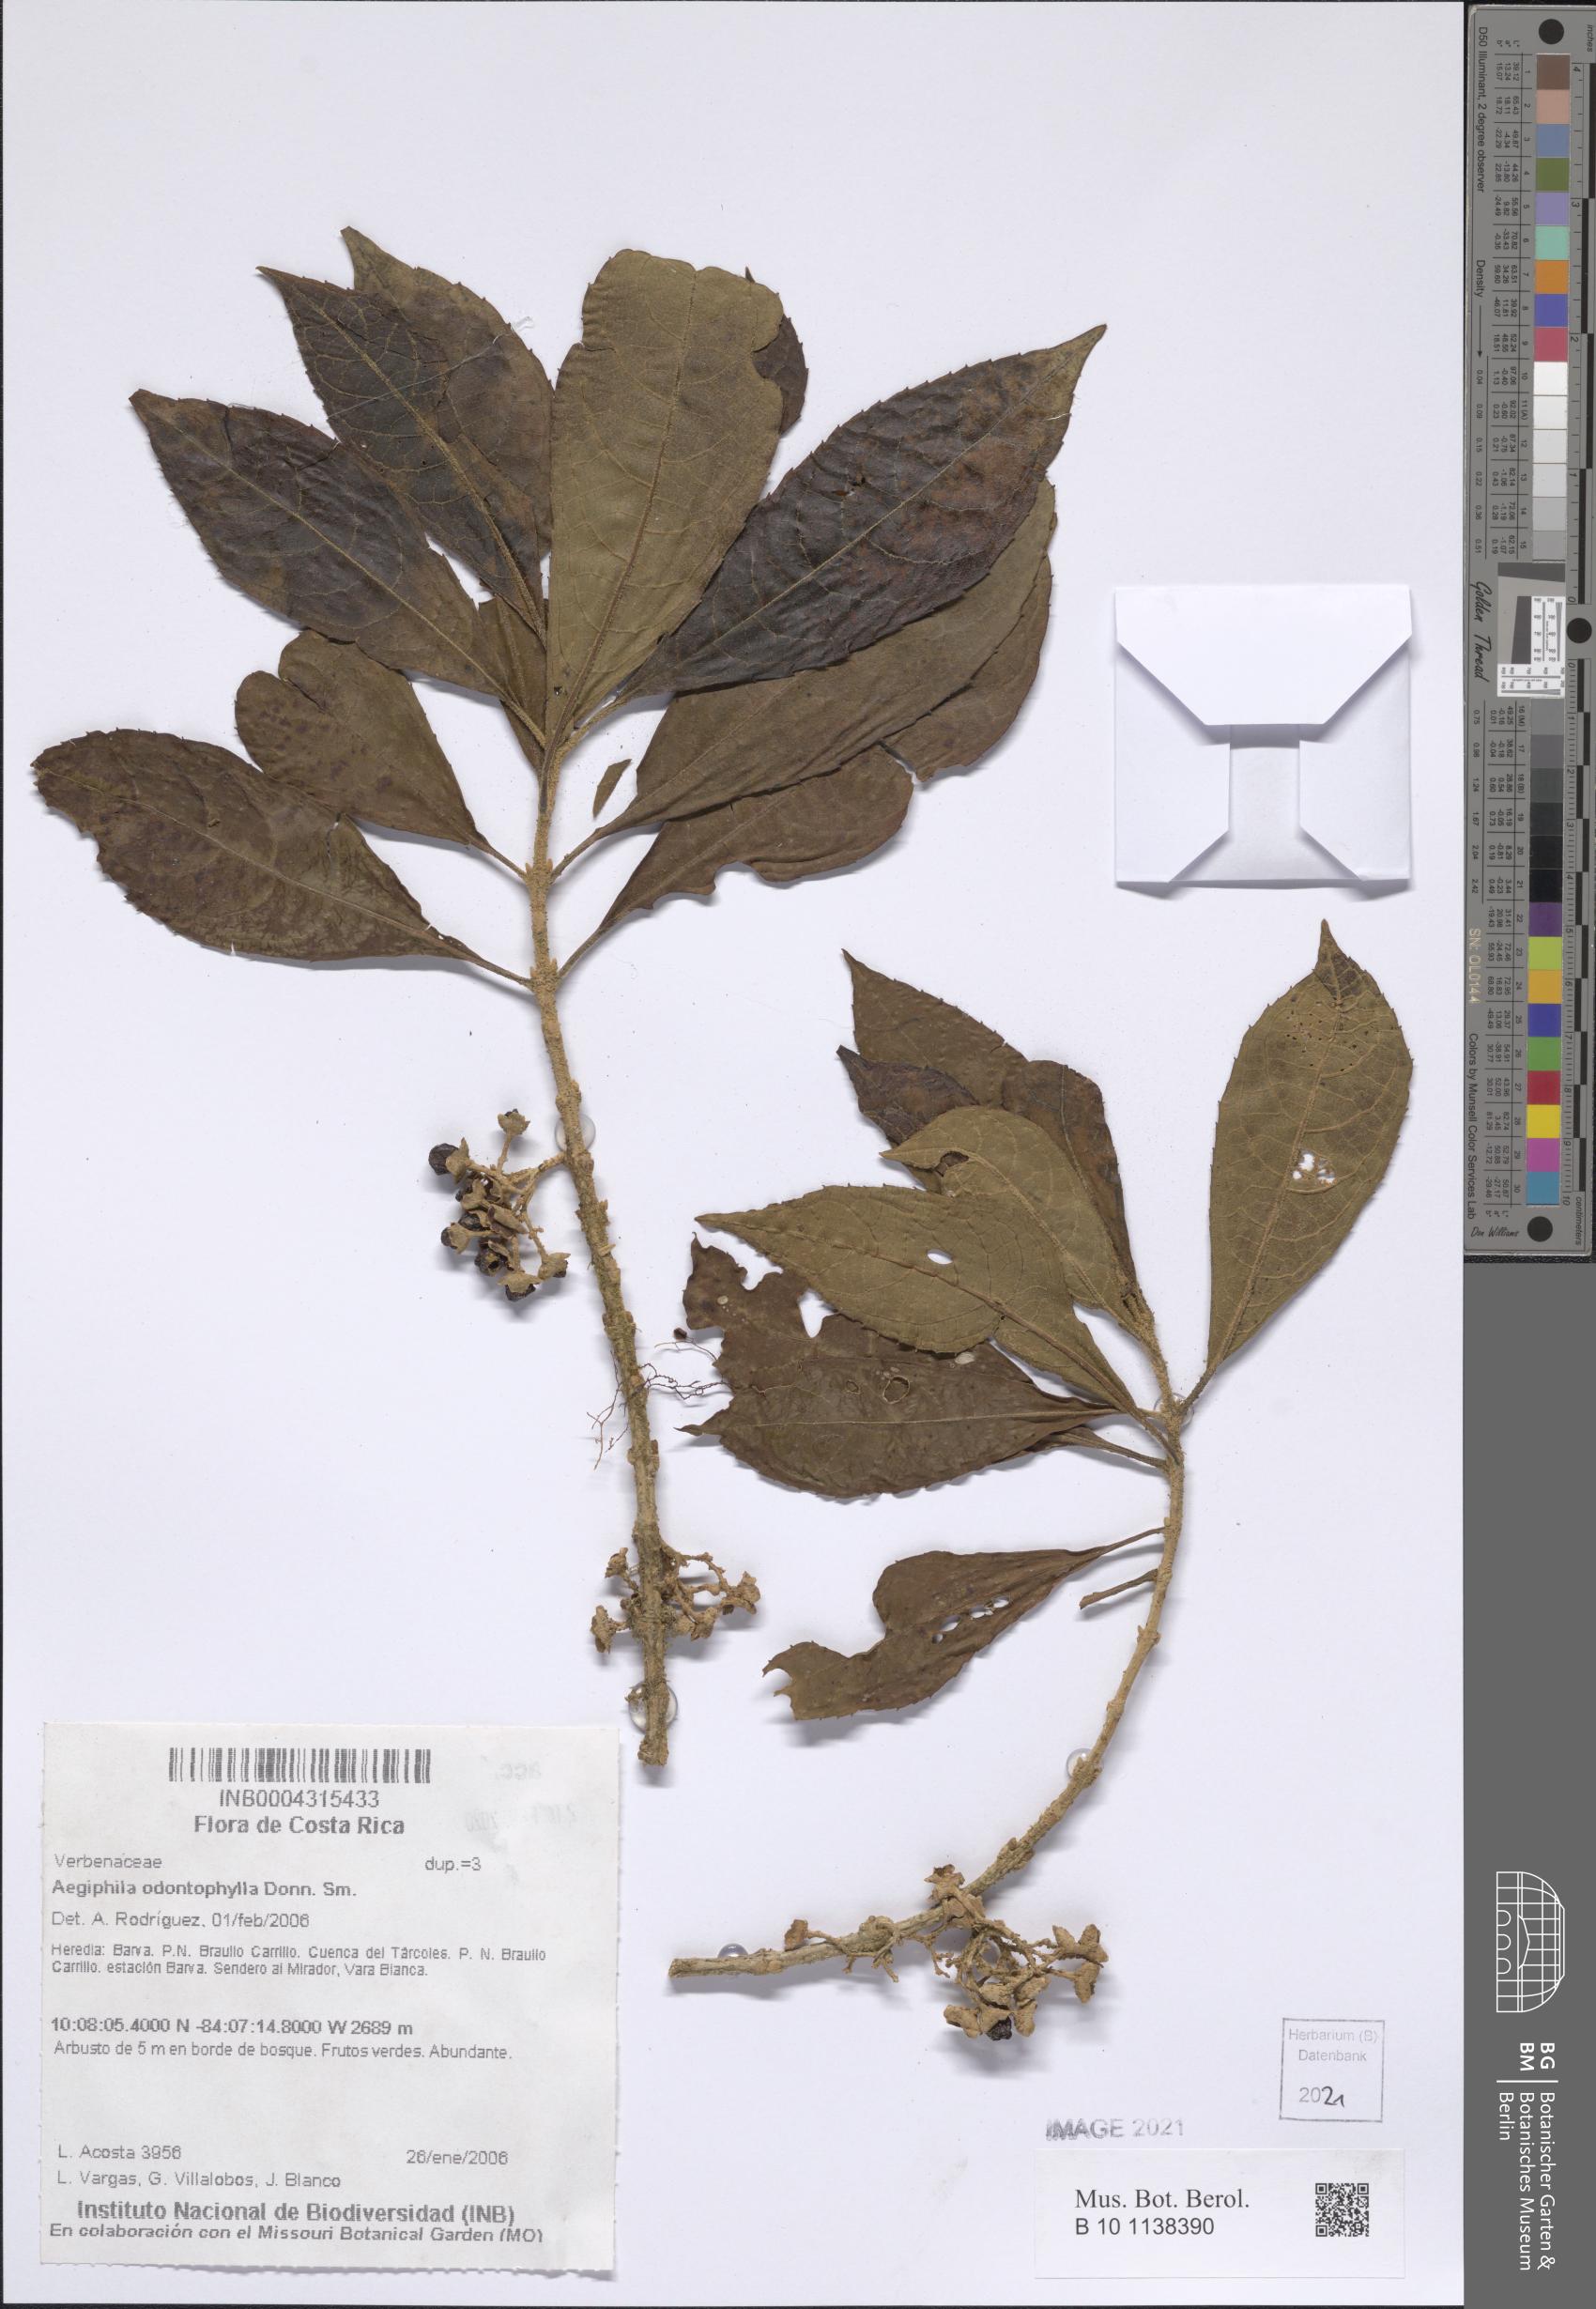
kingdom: Plantae
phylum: Tracheophyta
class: Magnoliopsida
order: Lamiales
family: Lamiaceae
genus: Aegiphila
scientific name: Aegiphila odontophylla
